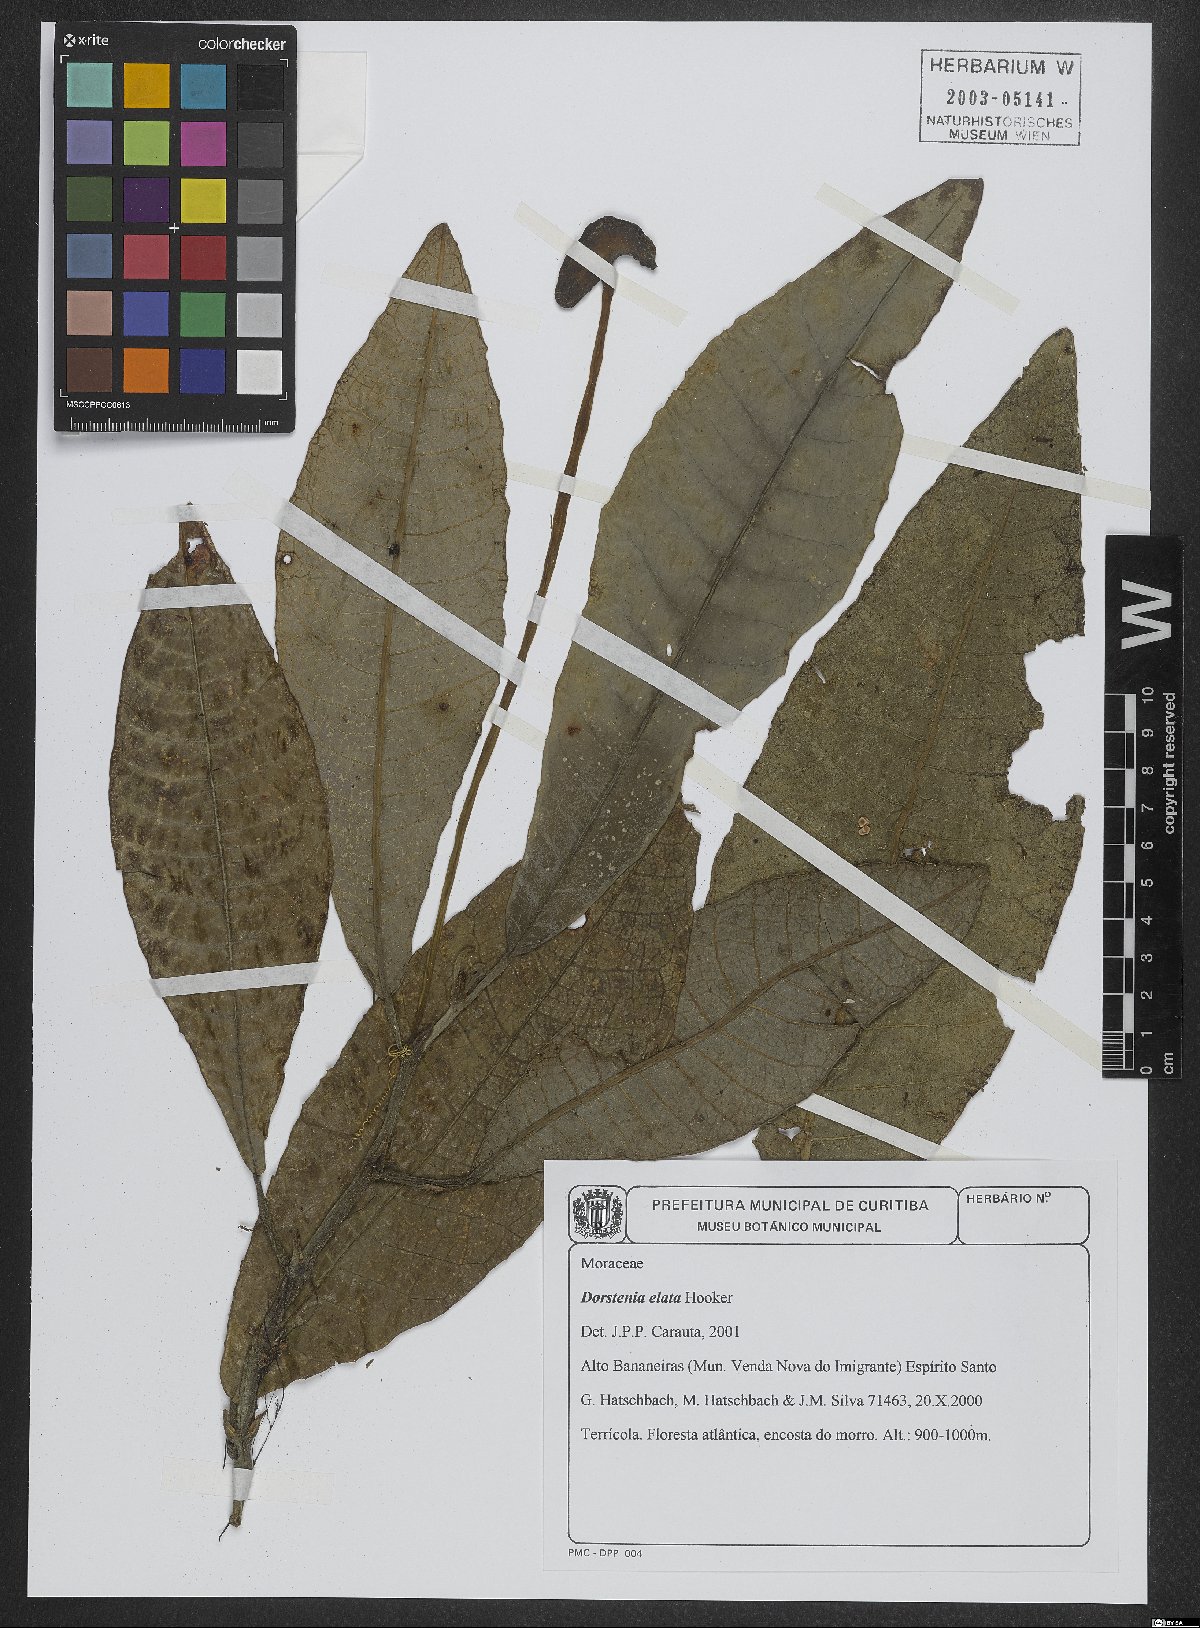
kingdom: Plantae
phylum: Tracheophyta
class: Magnoliopsida
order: Rosales
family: Moraceae
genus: Dorstenia
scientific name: Dorstenia elata
